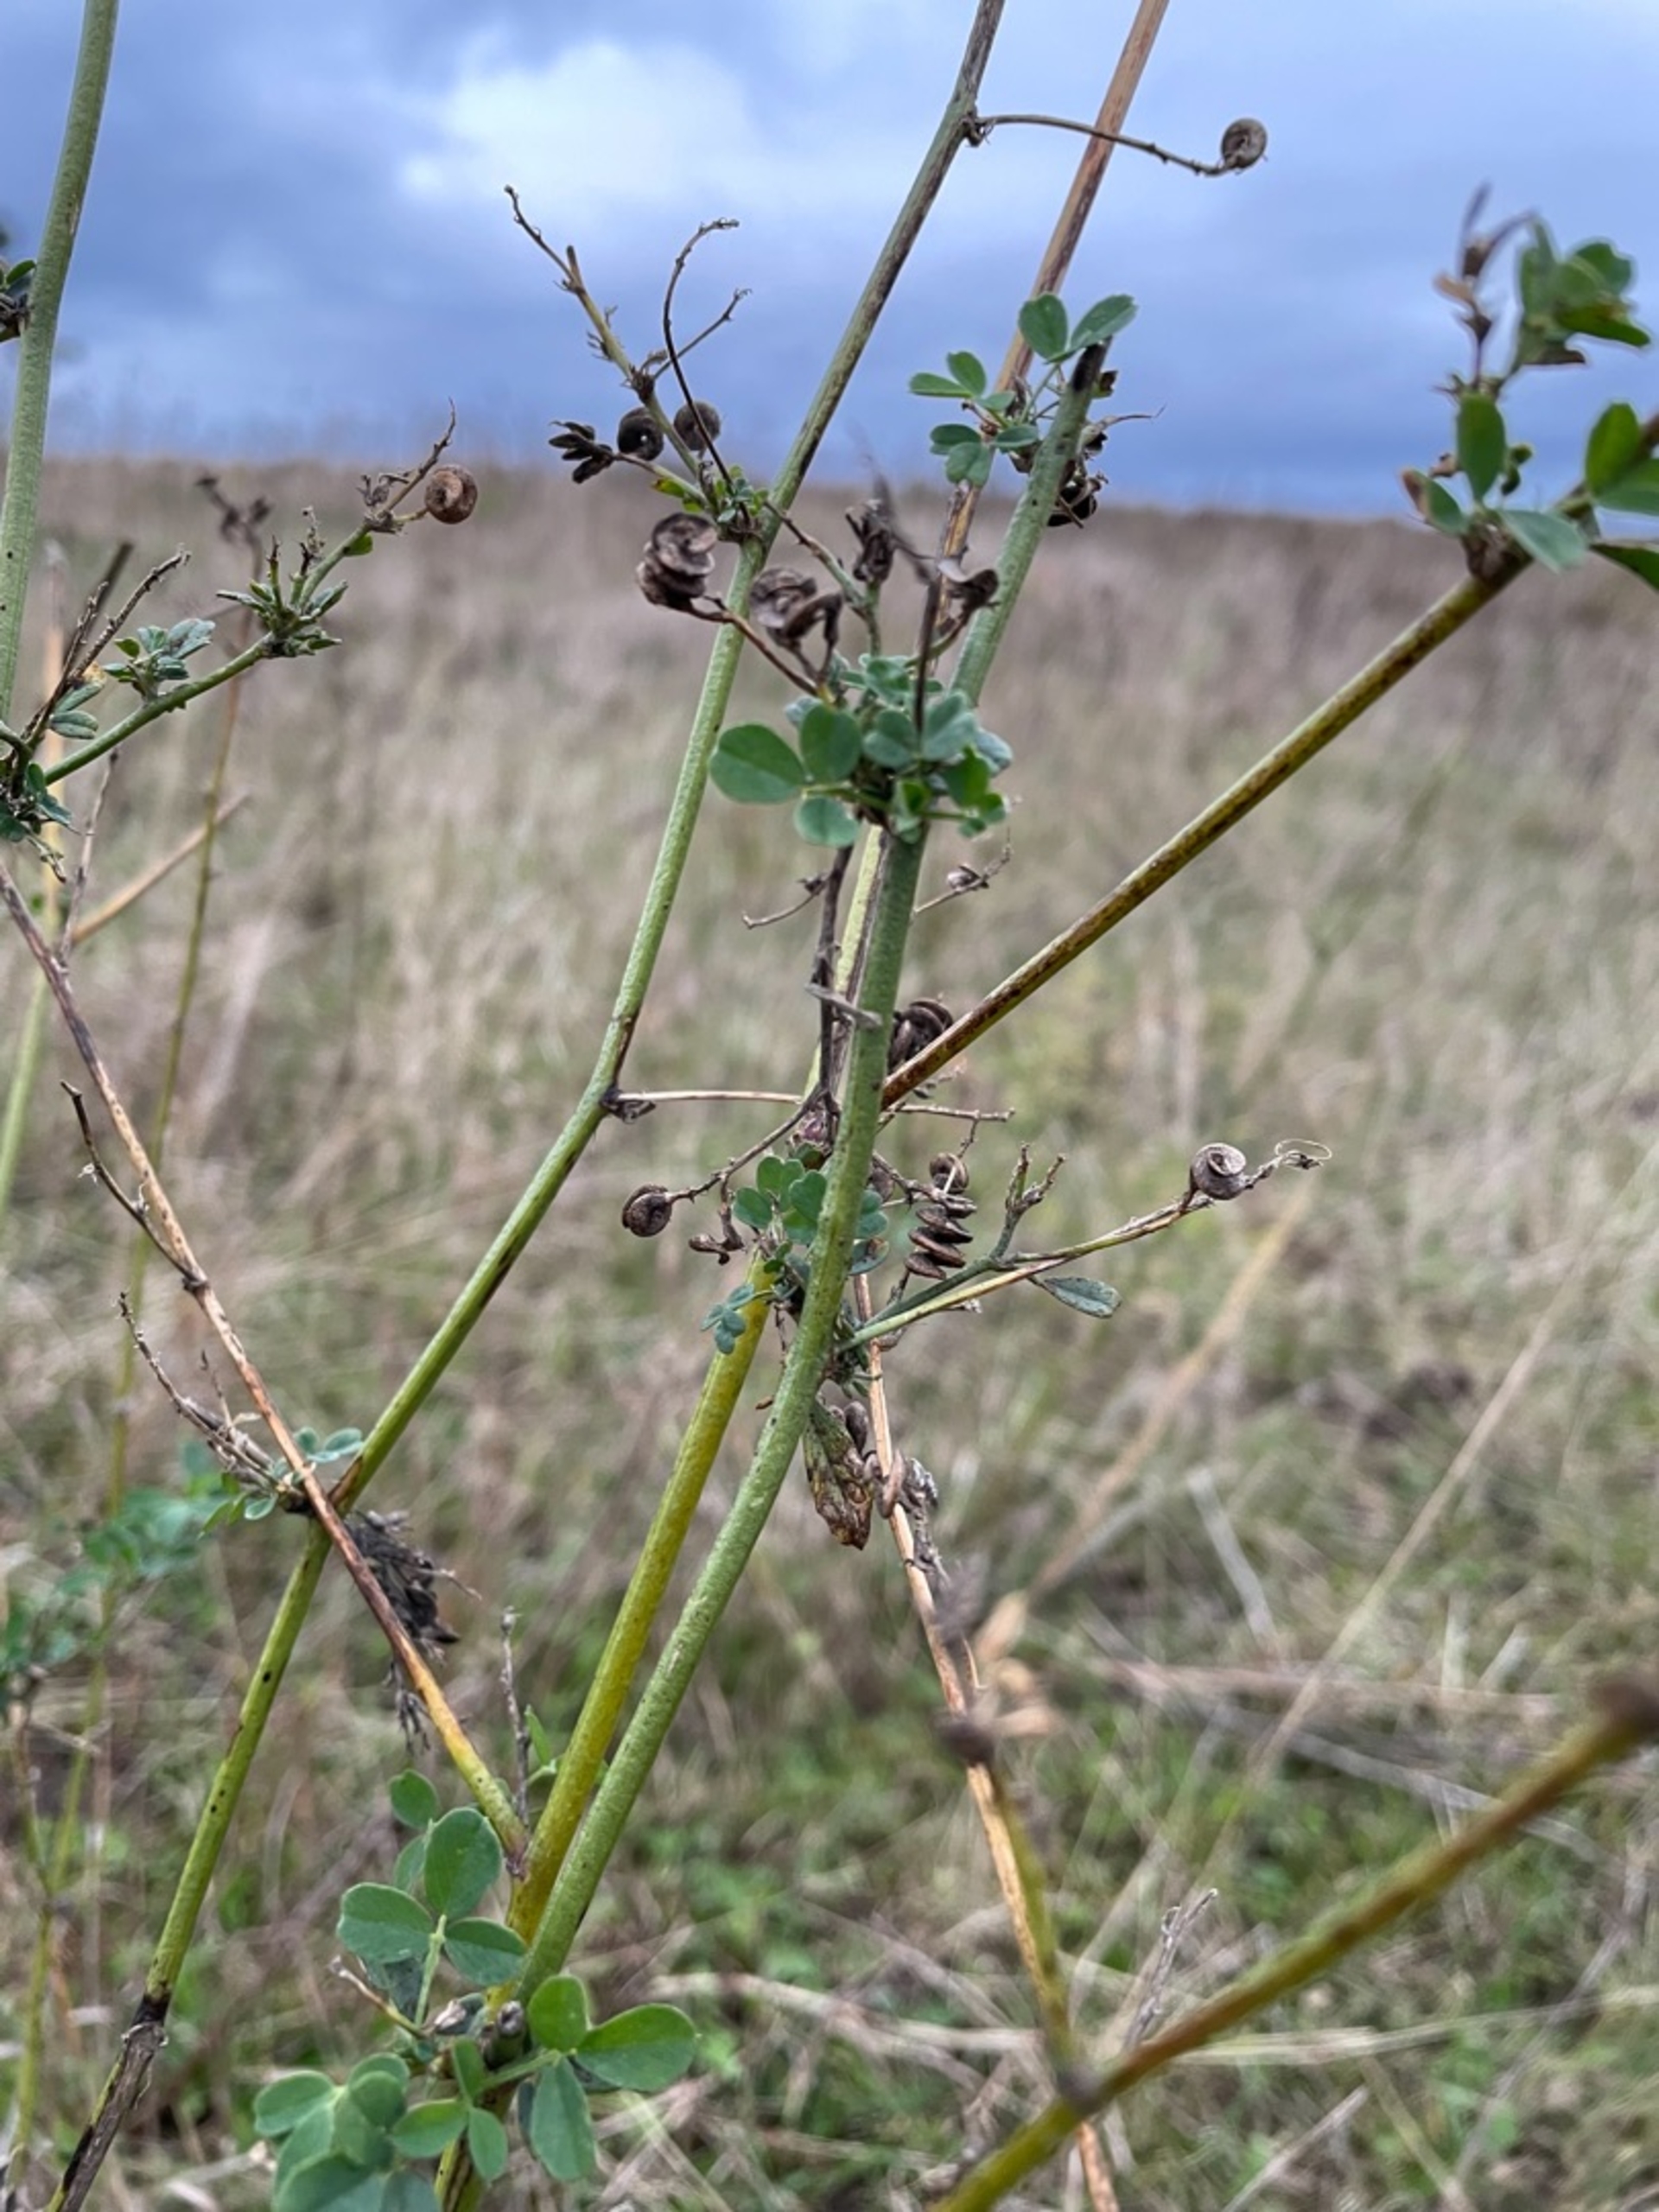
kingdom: Plantae
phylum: Tracheophyta
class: Magnoliopsida
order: Fabales
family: Fabaceae
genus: Medicago
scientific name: Medicago sativa
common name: Lucerne
